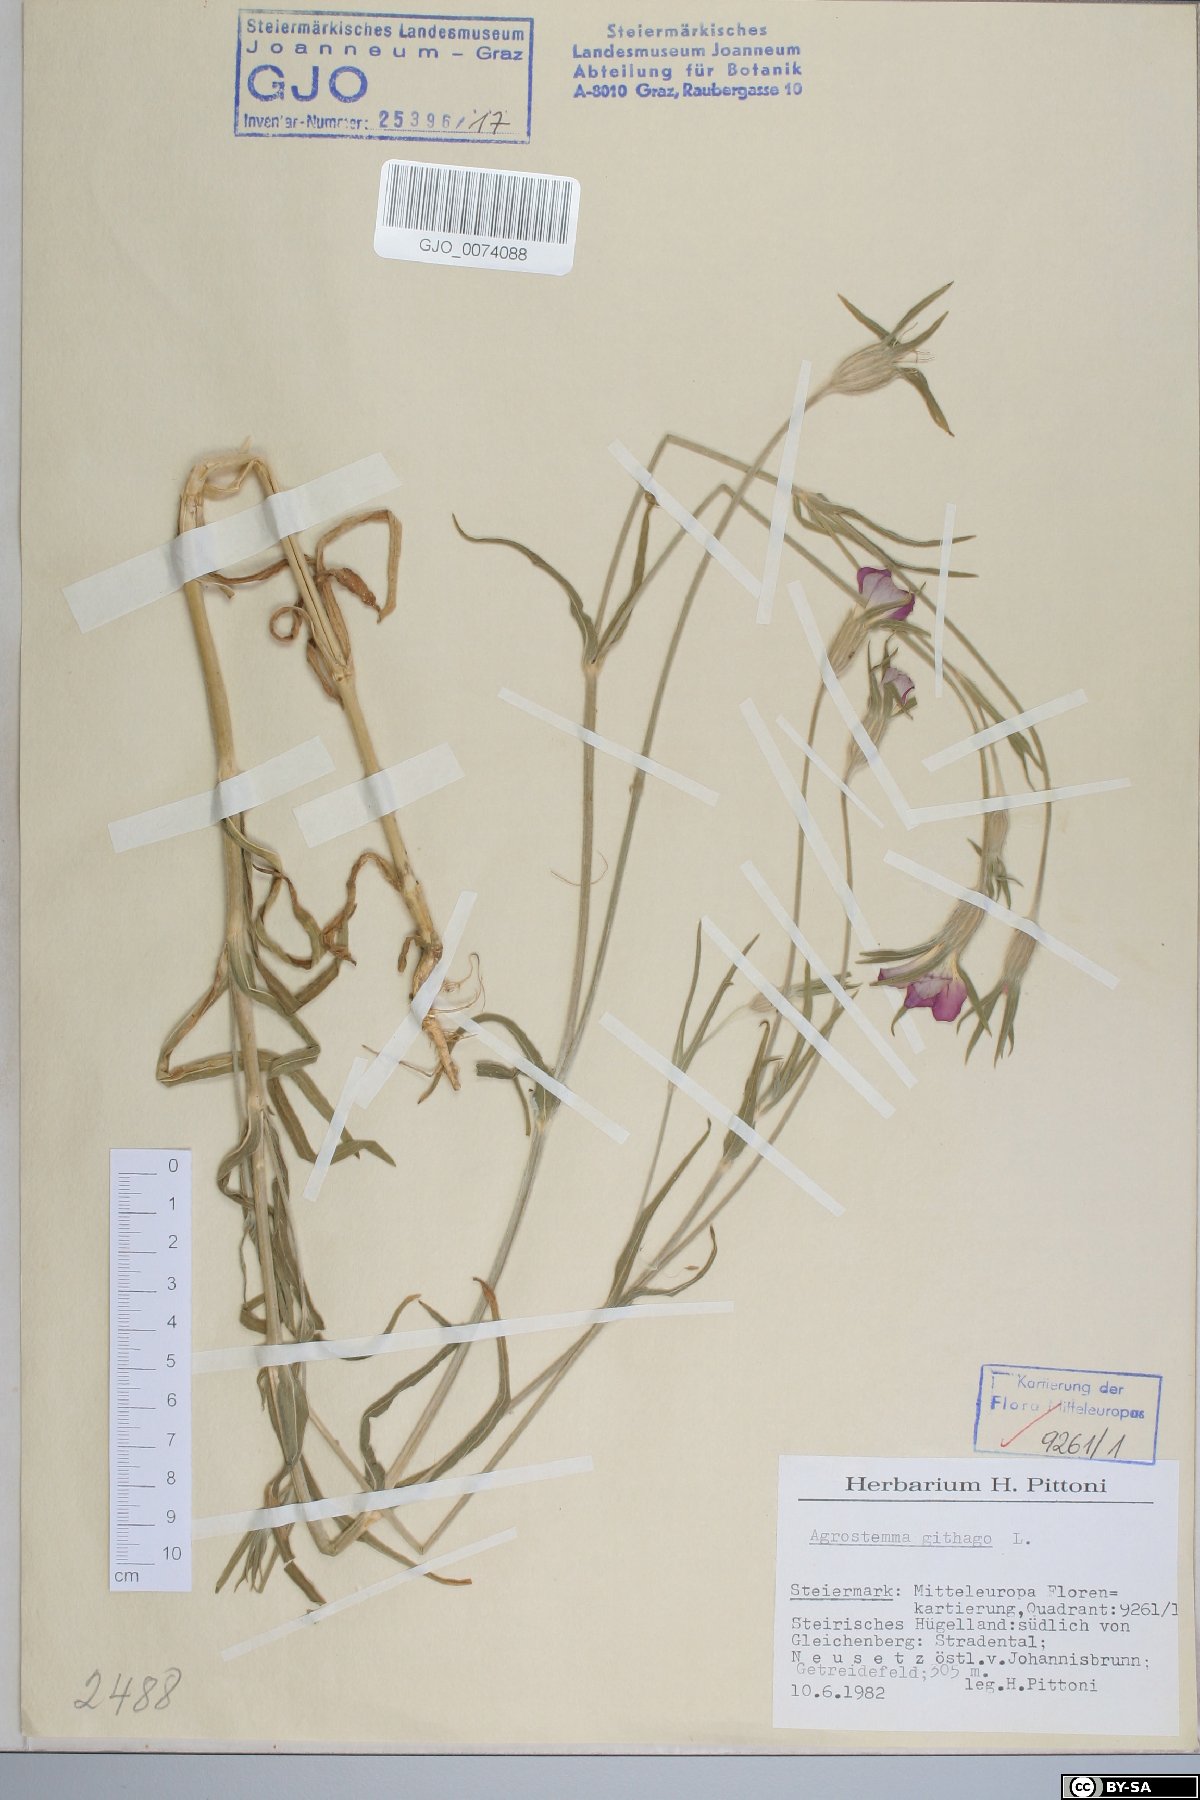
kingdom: Plantae
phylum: Tracheophyta
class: Magnoliopsida
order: Caryophyllales
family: Caryophyllaceae
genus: Agrostemma
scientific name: Agrostemma githago
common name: Common corncockle
